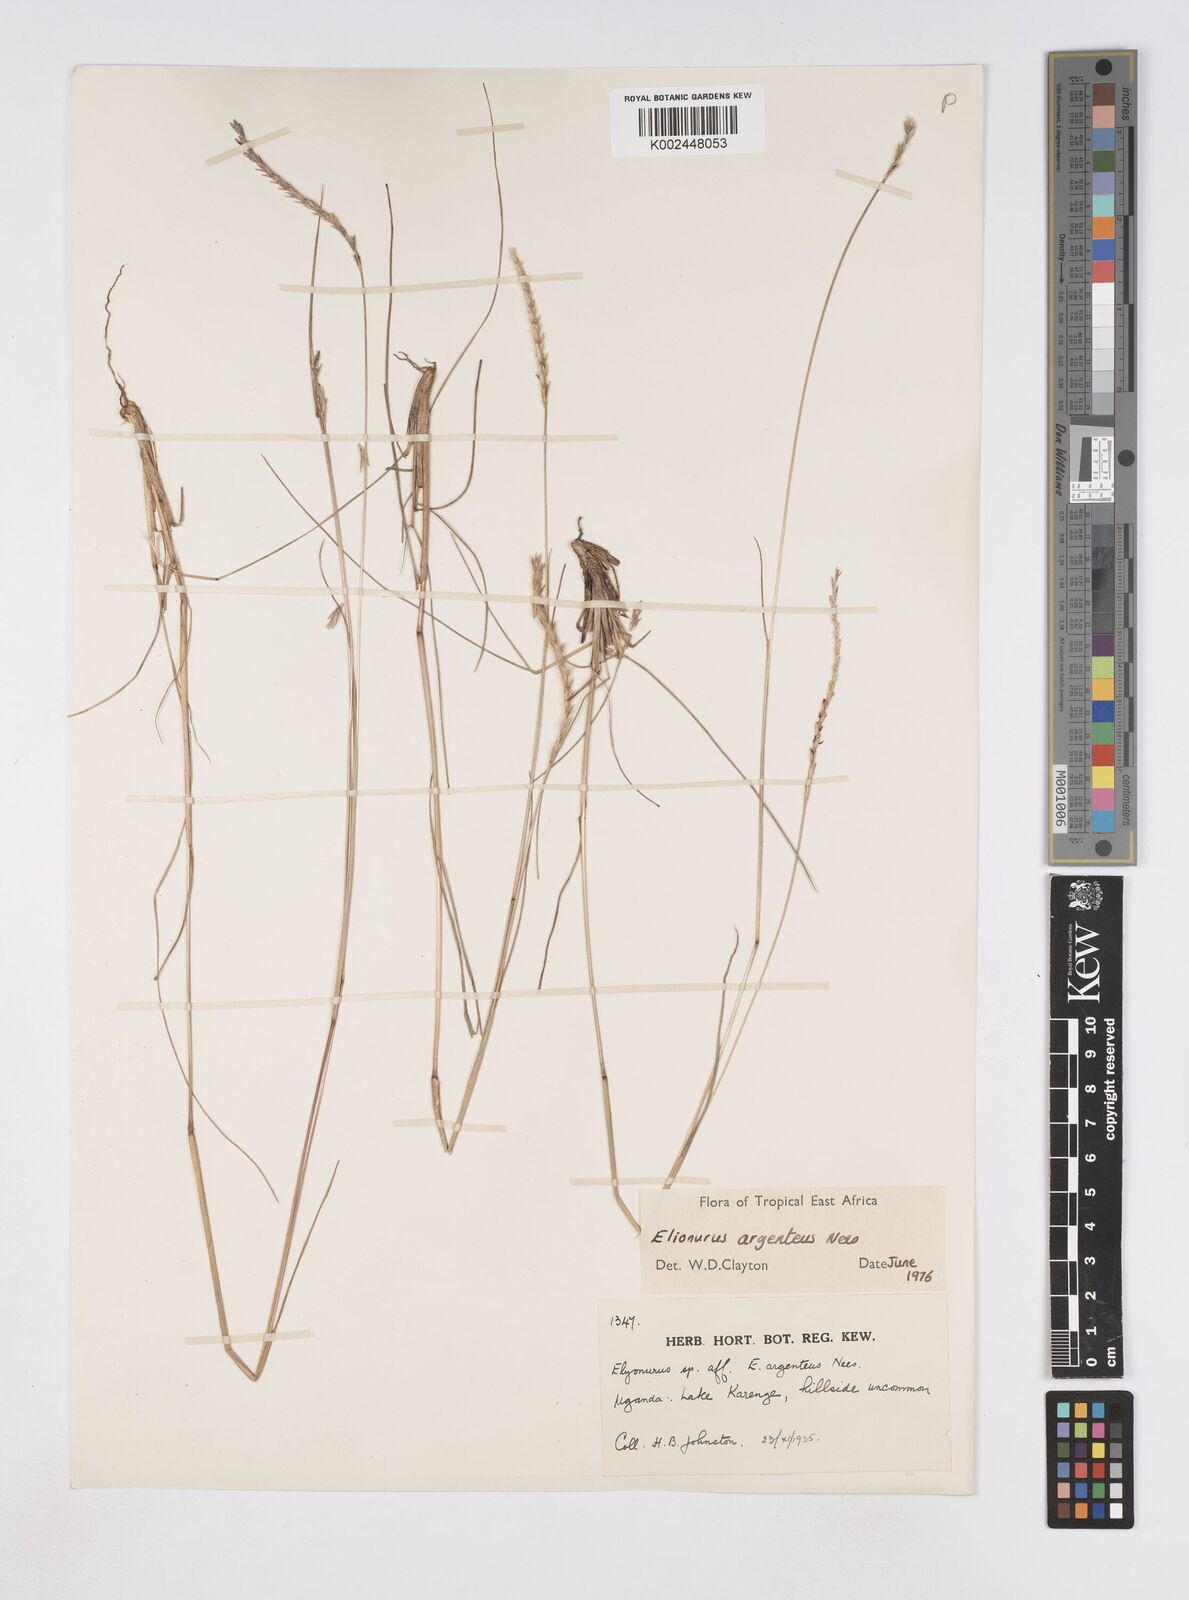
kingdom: Plantae
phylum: Tracheophyta
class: Liliopsida
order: Poales
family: Poaceae
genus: Elionurus
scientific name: Elionurus muticus
